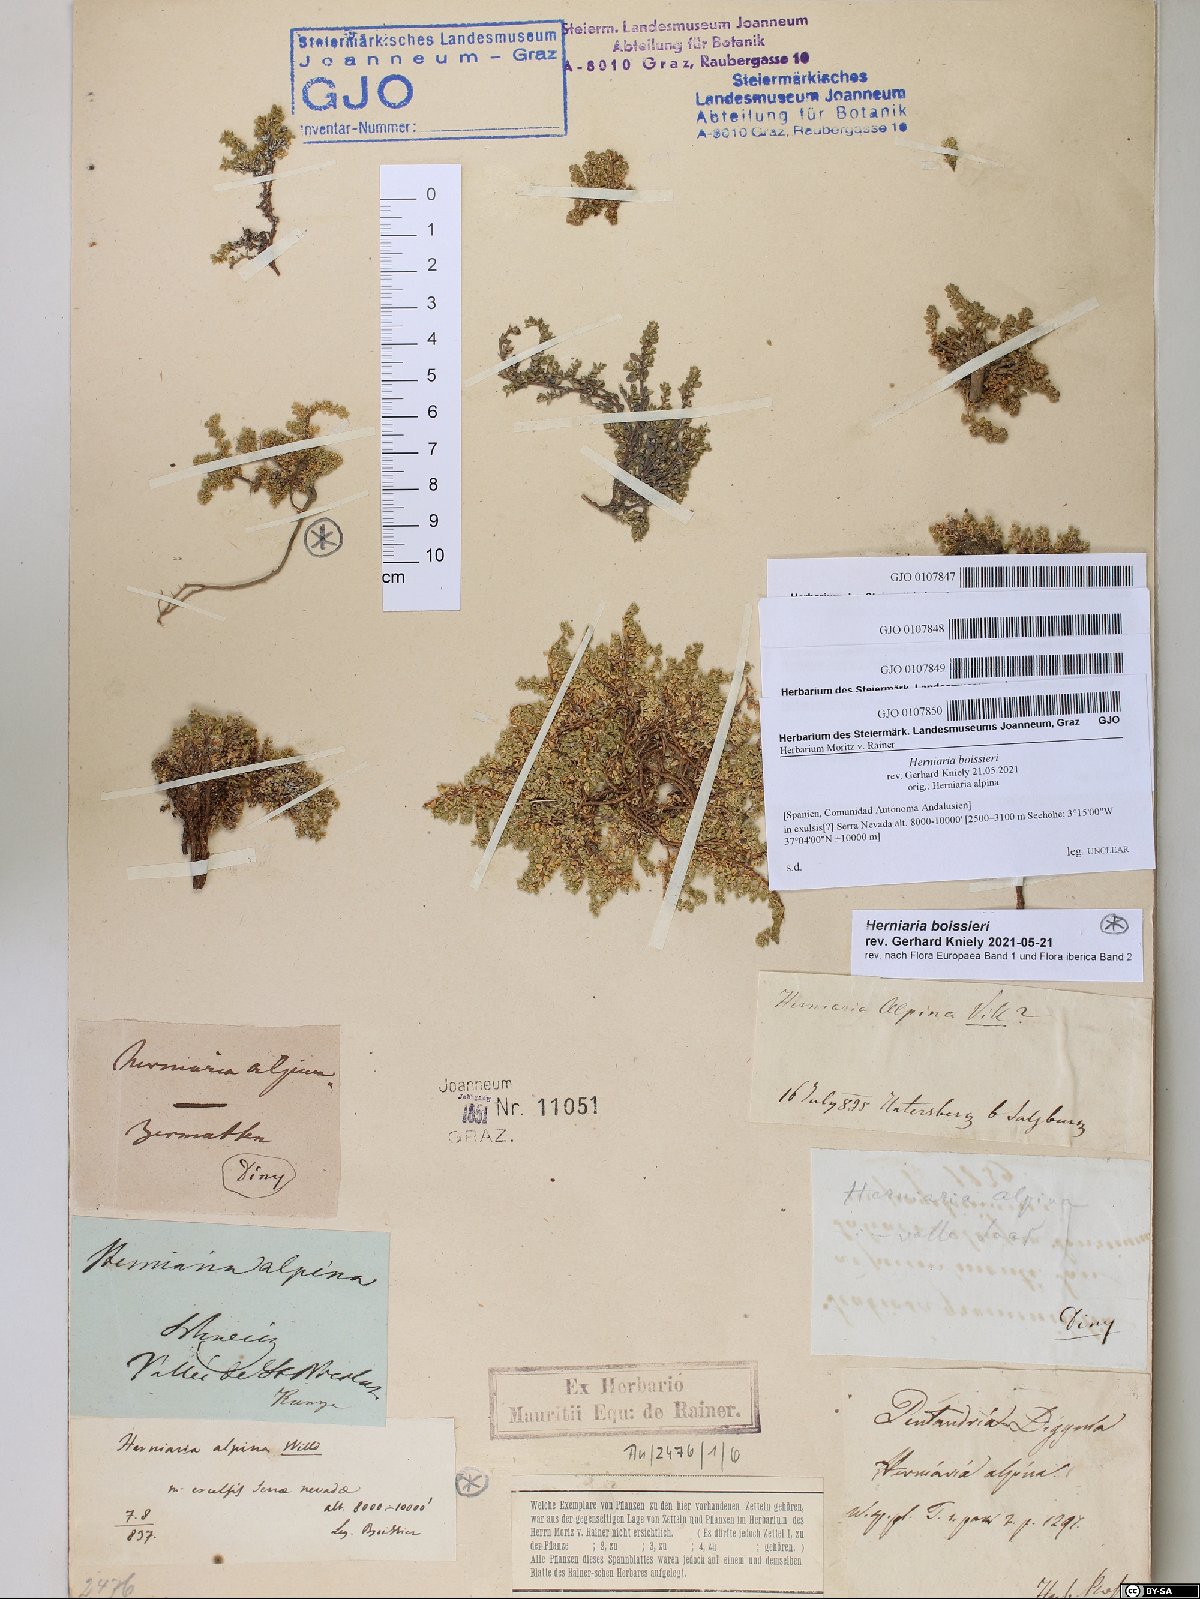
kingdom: Plantae
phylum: Tracheophyta
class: Magnoliopsida
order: Caryophyllales
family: Caryophyllaceae
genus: Herniaria
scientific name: Herniaria alpina
